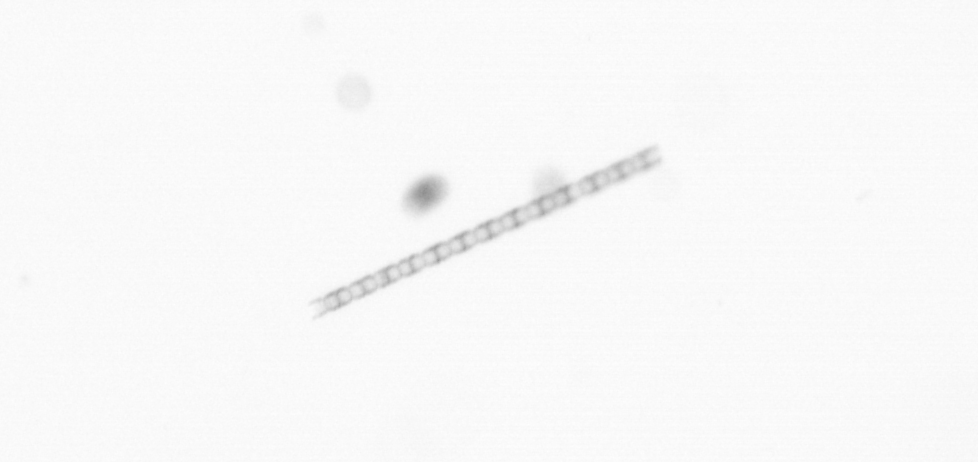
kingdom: Chromista
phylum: Ochrophyta
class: Bacillariophyceae
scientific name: Bacillariophyceae
